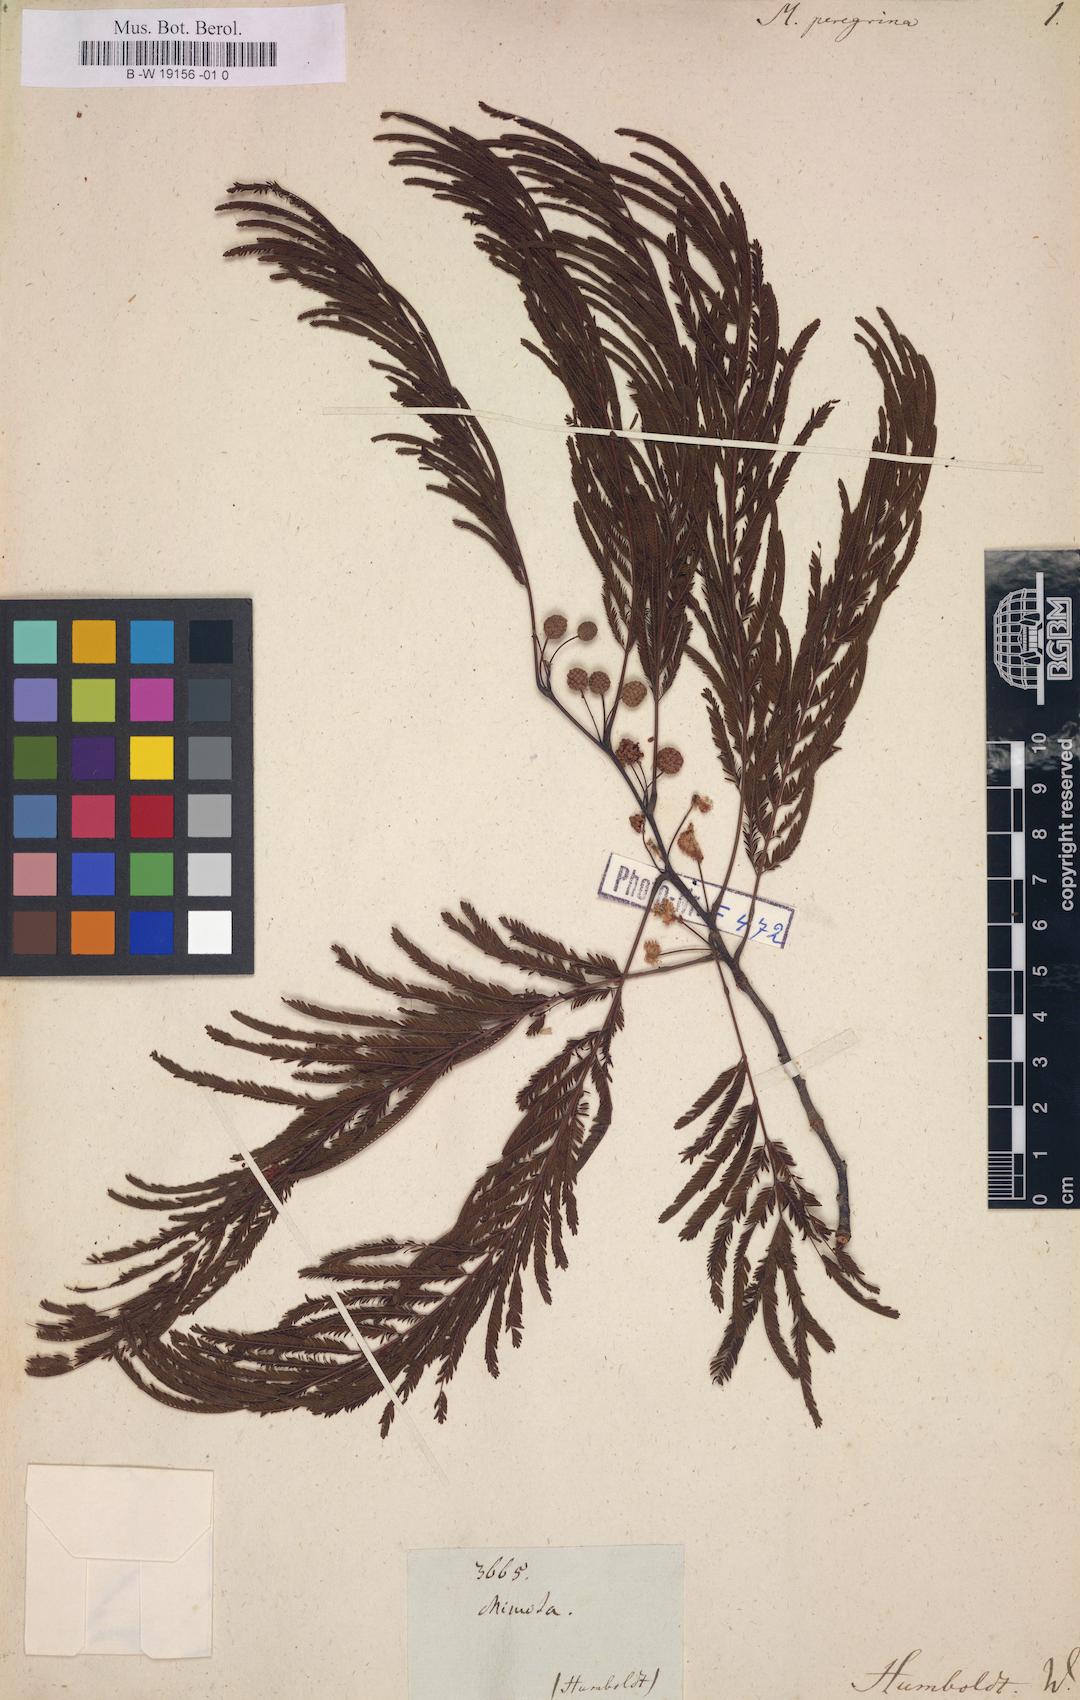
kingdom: Plantae
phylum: Tracheophyta
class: Magnoliopsida
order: Fabales
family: Fabaceae
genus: Anadenanthera
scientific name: Anadenanthera peregrina
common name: Cohoba
